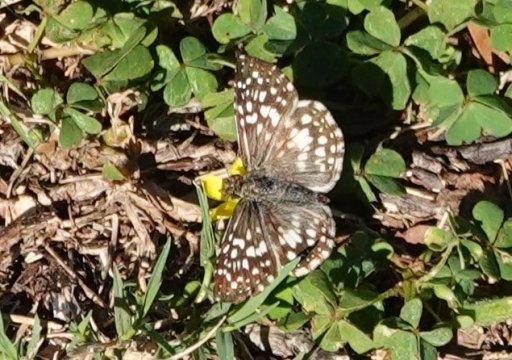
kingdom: Animalia
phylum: Arthropoda
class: Insecta
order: Lepidoptera
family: Hesperiidae
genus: Pyrgus
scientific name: Pyrgus oileus
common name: Tropical Checkered-Skipper
